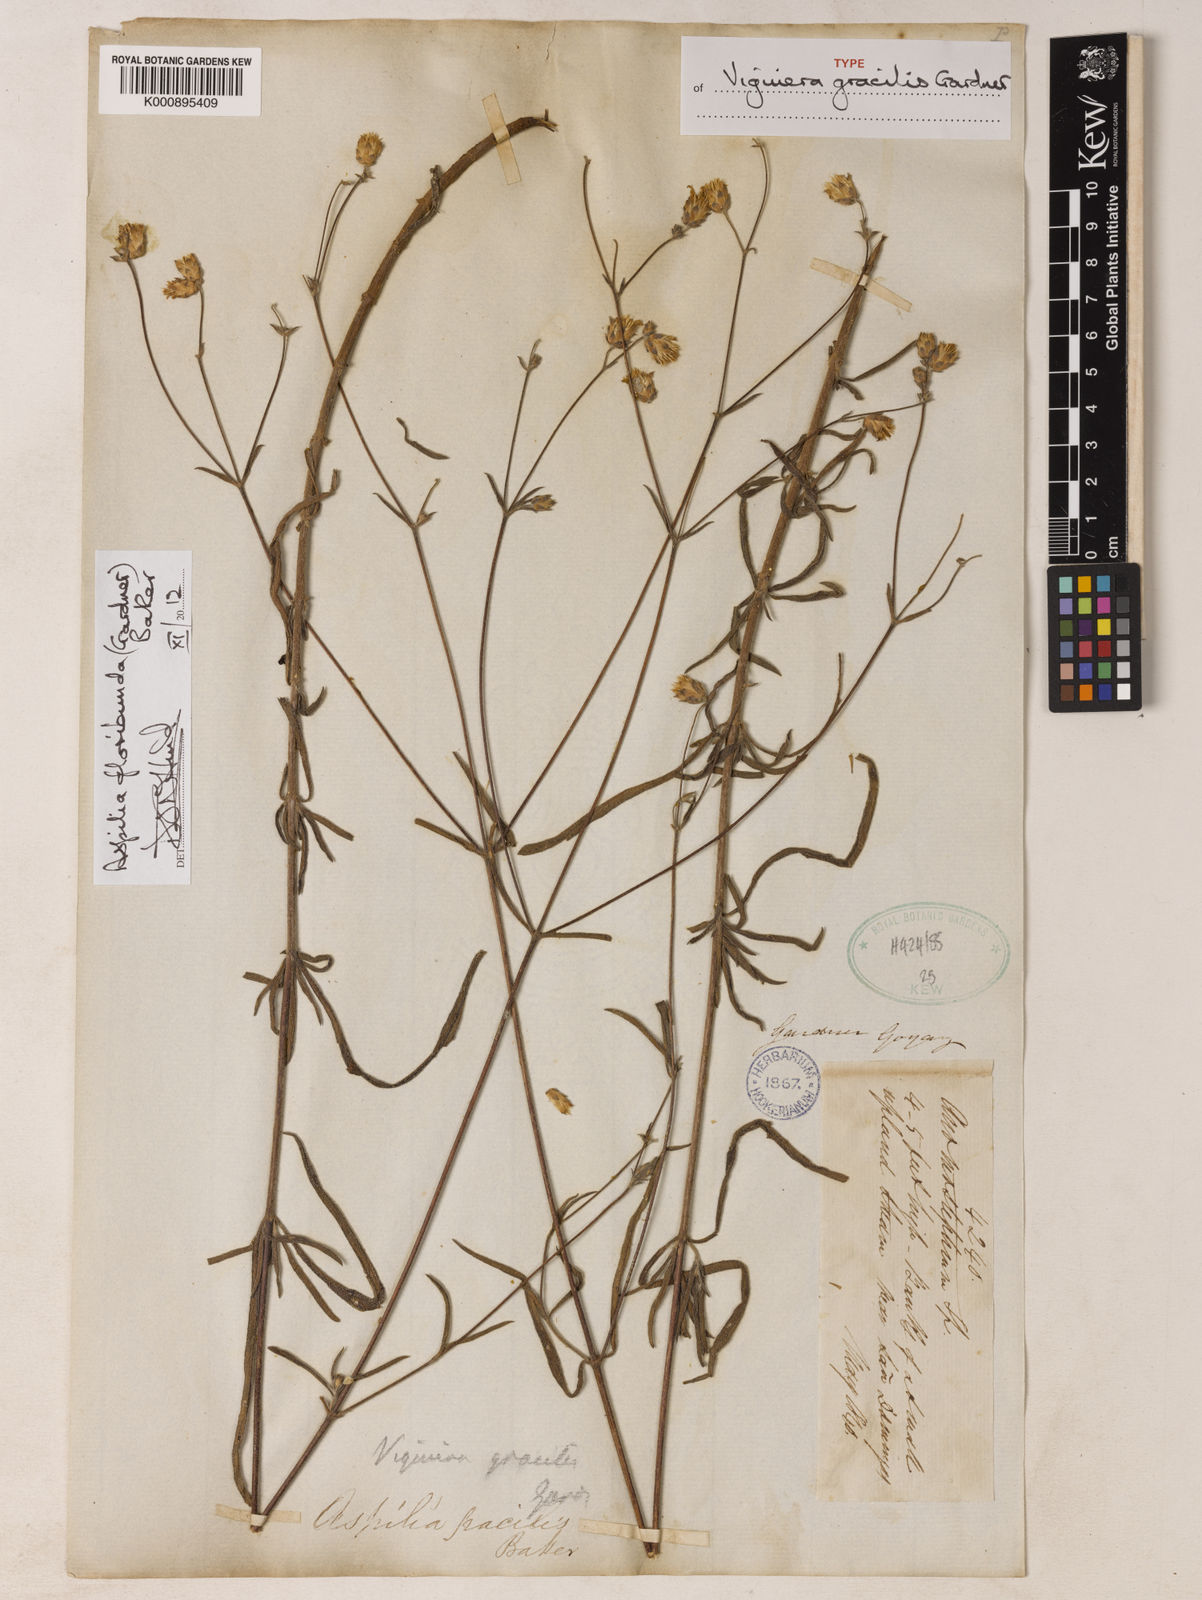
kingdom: Plantae
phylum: Tracheophyta
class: Magnoliopsida
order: Asterales
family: Asteraceae
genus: Wedelia
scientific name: Wedelia floribunda
